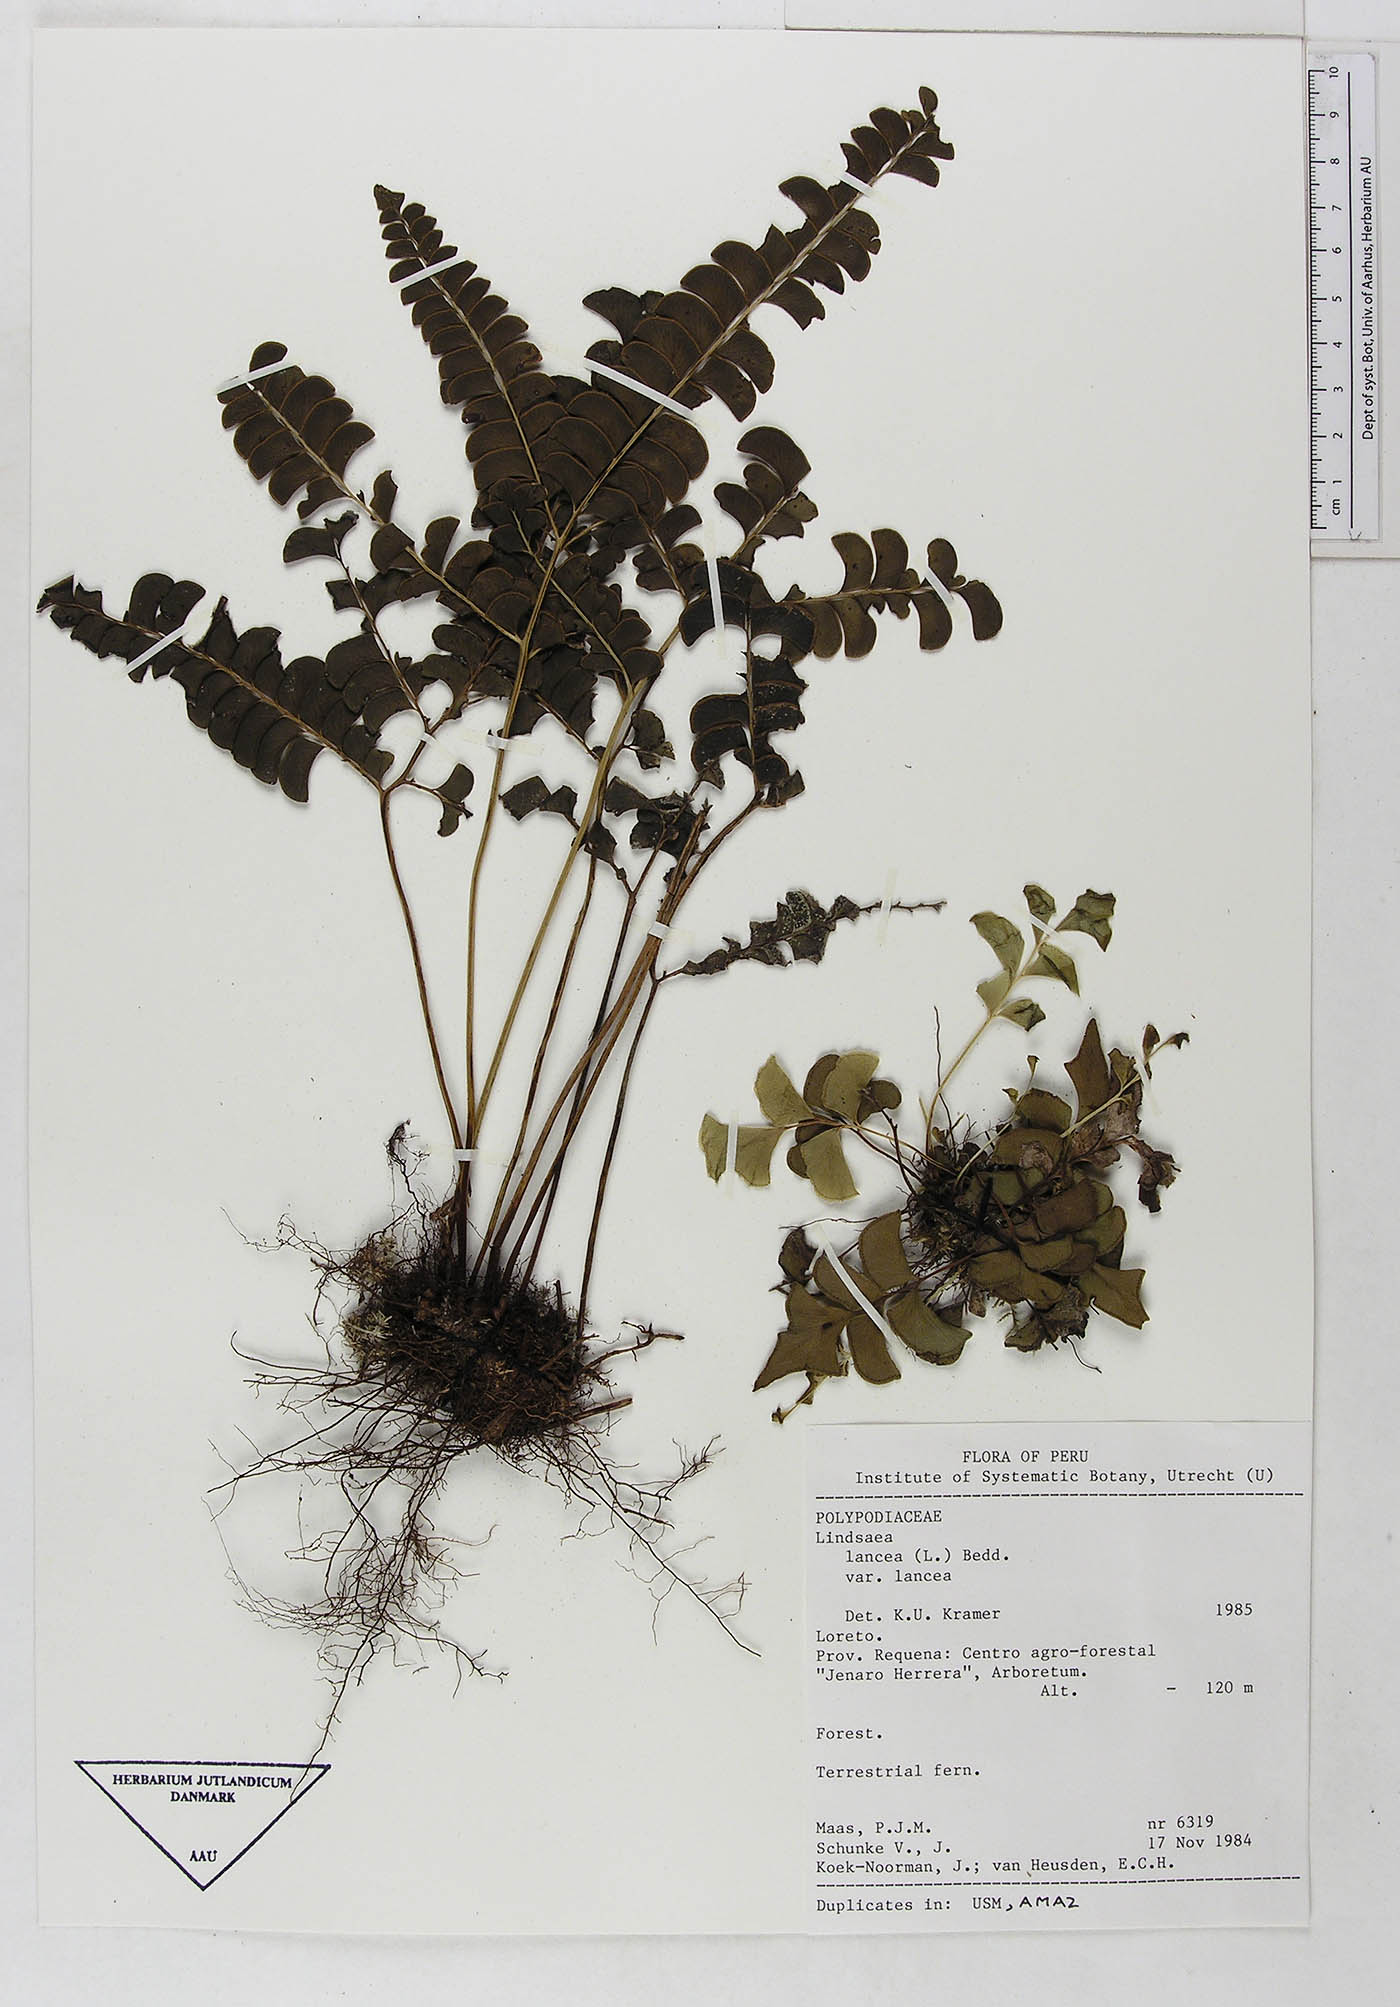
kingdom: Plantae
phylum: Tracheophyta
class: Polypodiopsida
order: Polypodiales
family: Dennstaedtiaceae
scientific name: Dennstaedtiaceae
